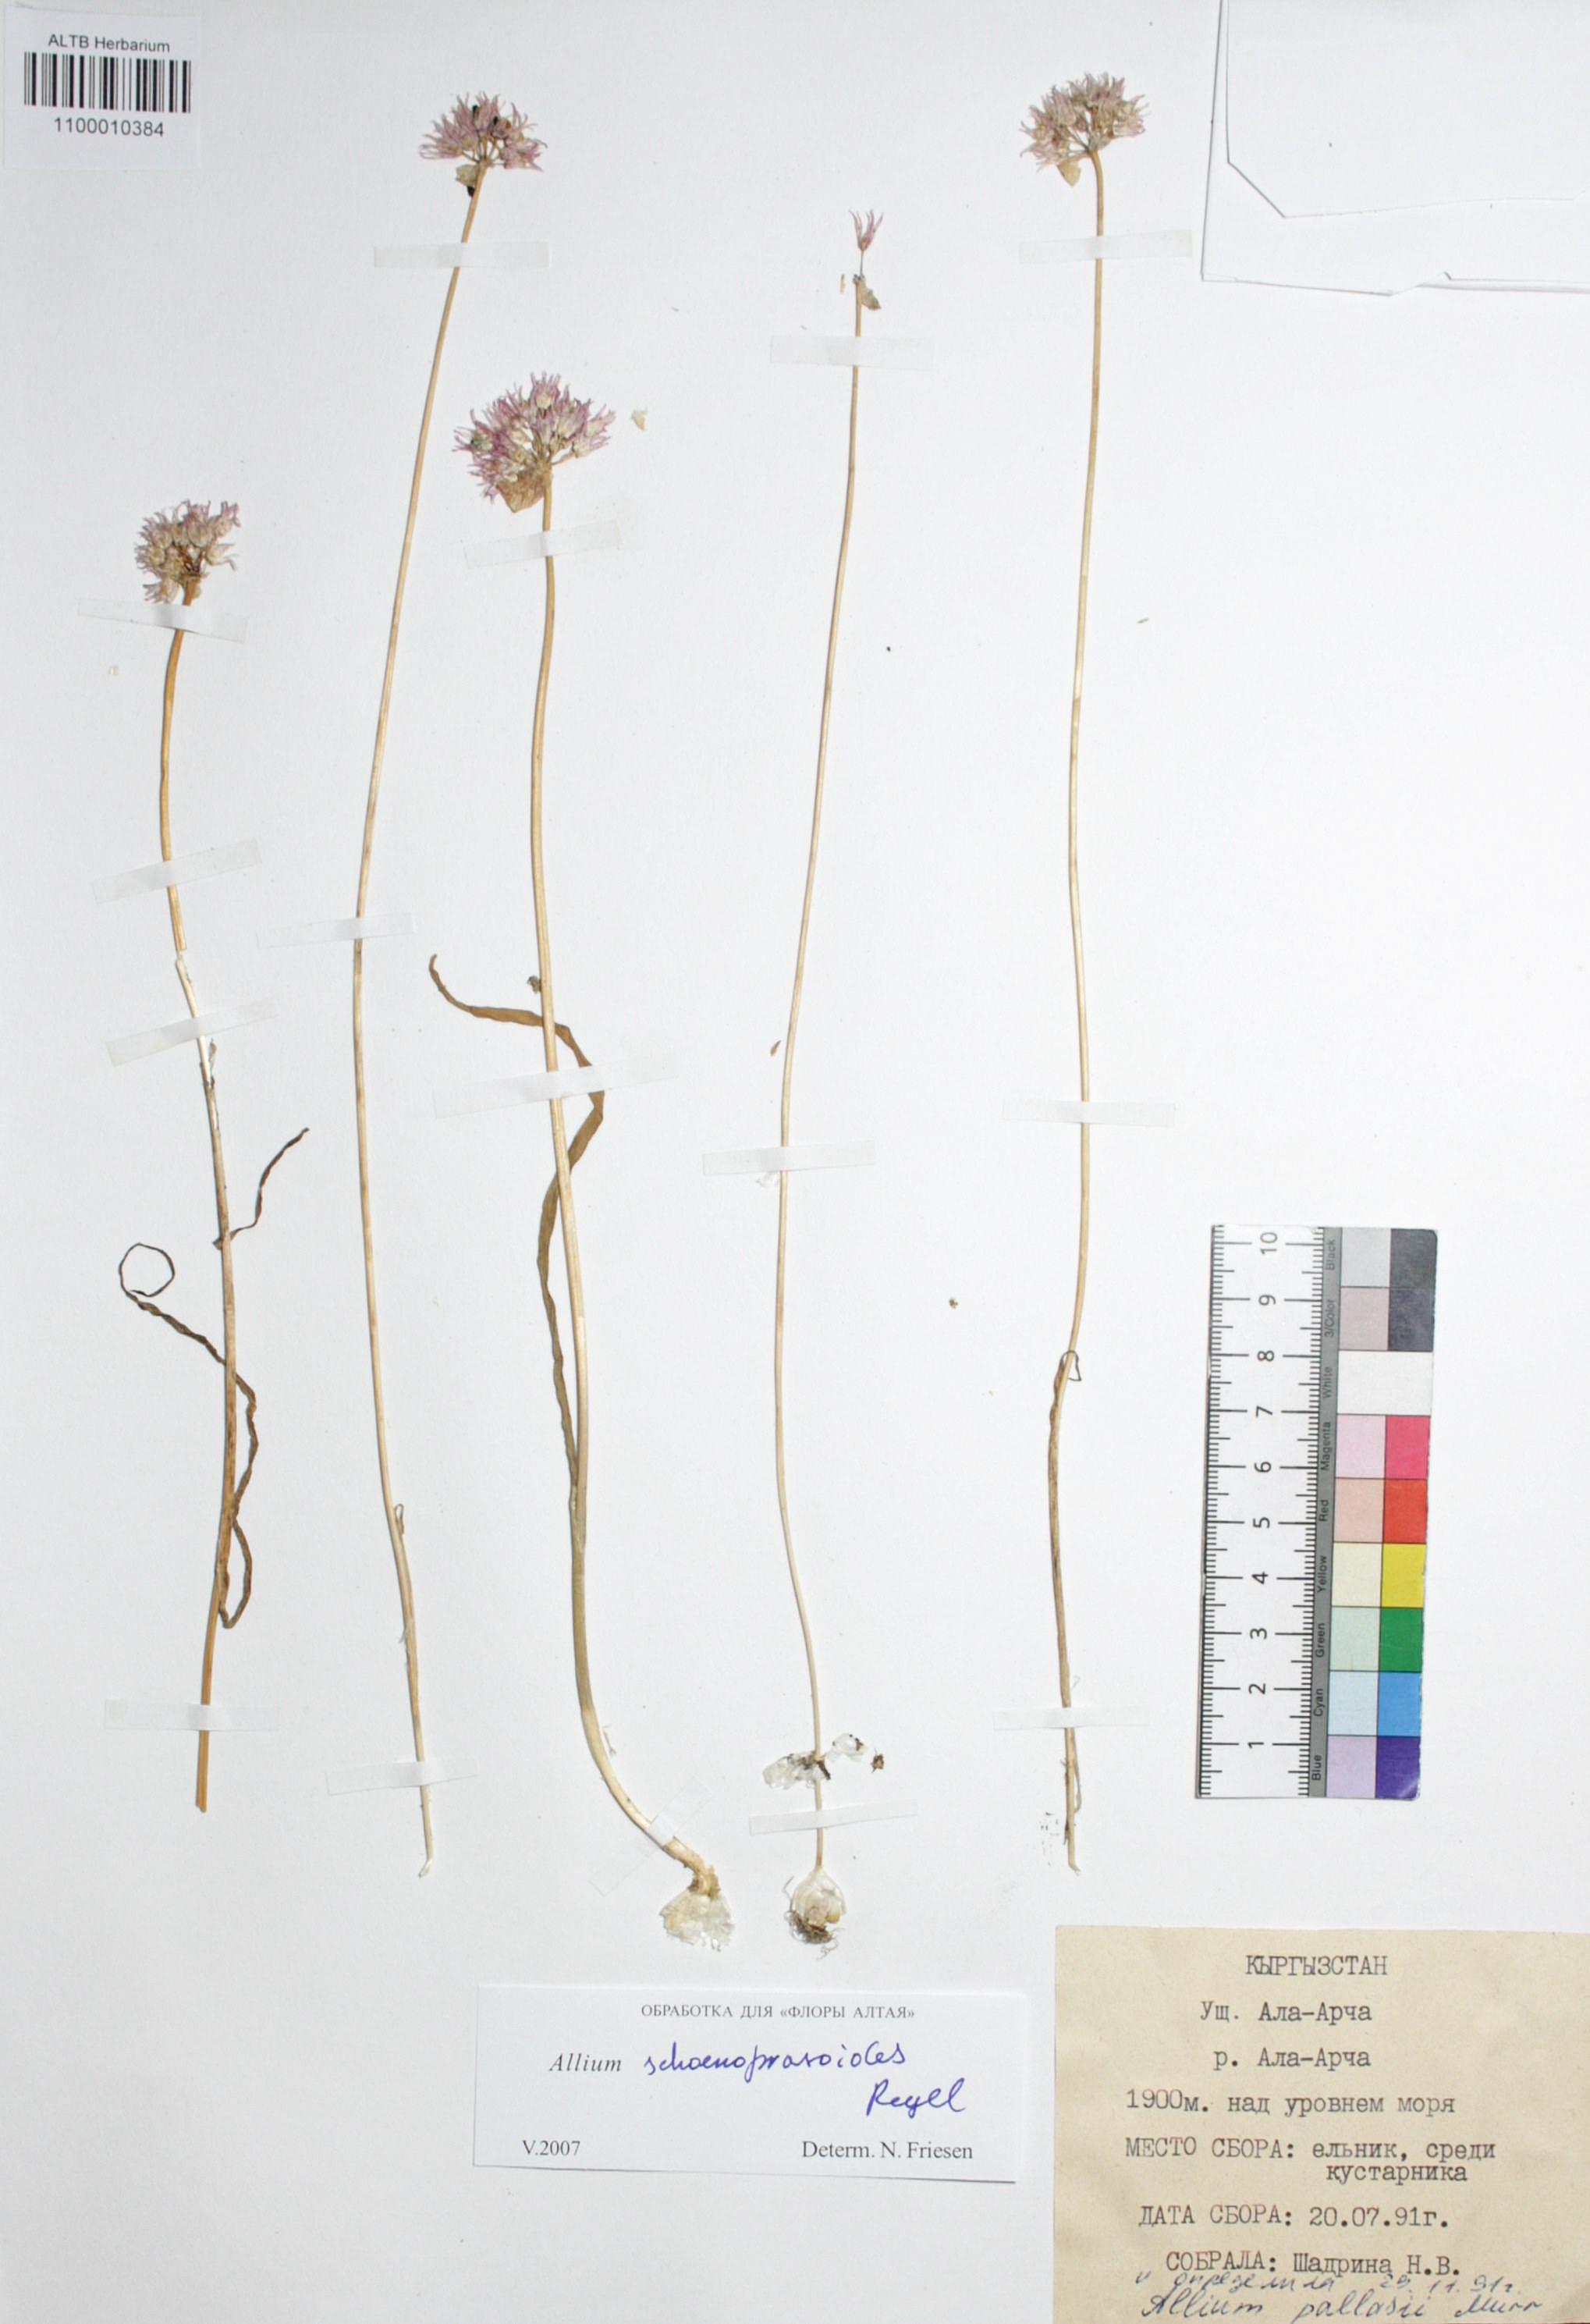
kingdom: Plantae
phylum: Tracheophyta
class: Liliopsida
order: Asparagales
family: Amaryllidaceae
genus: Allium
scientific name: Allium schoenoprasoides
